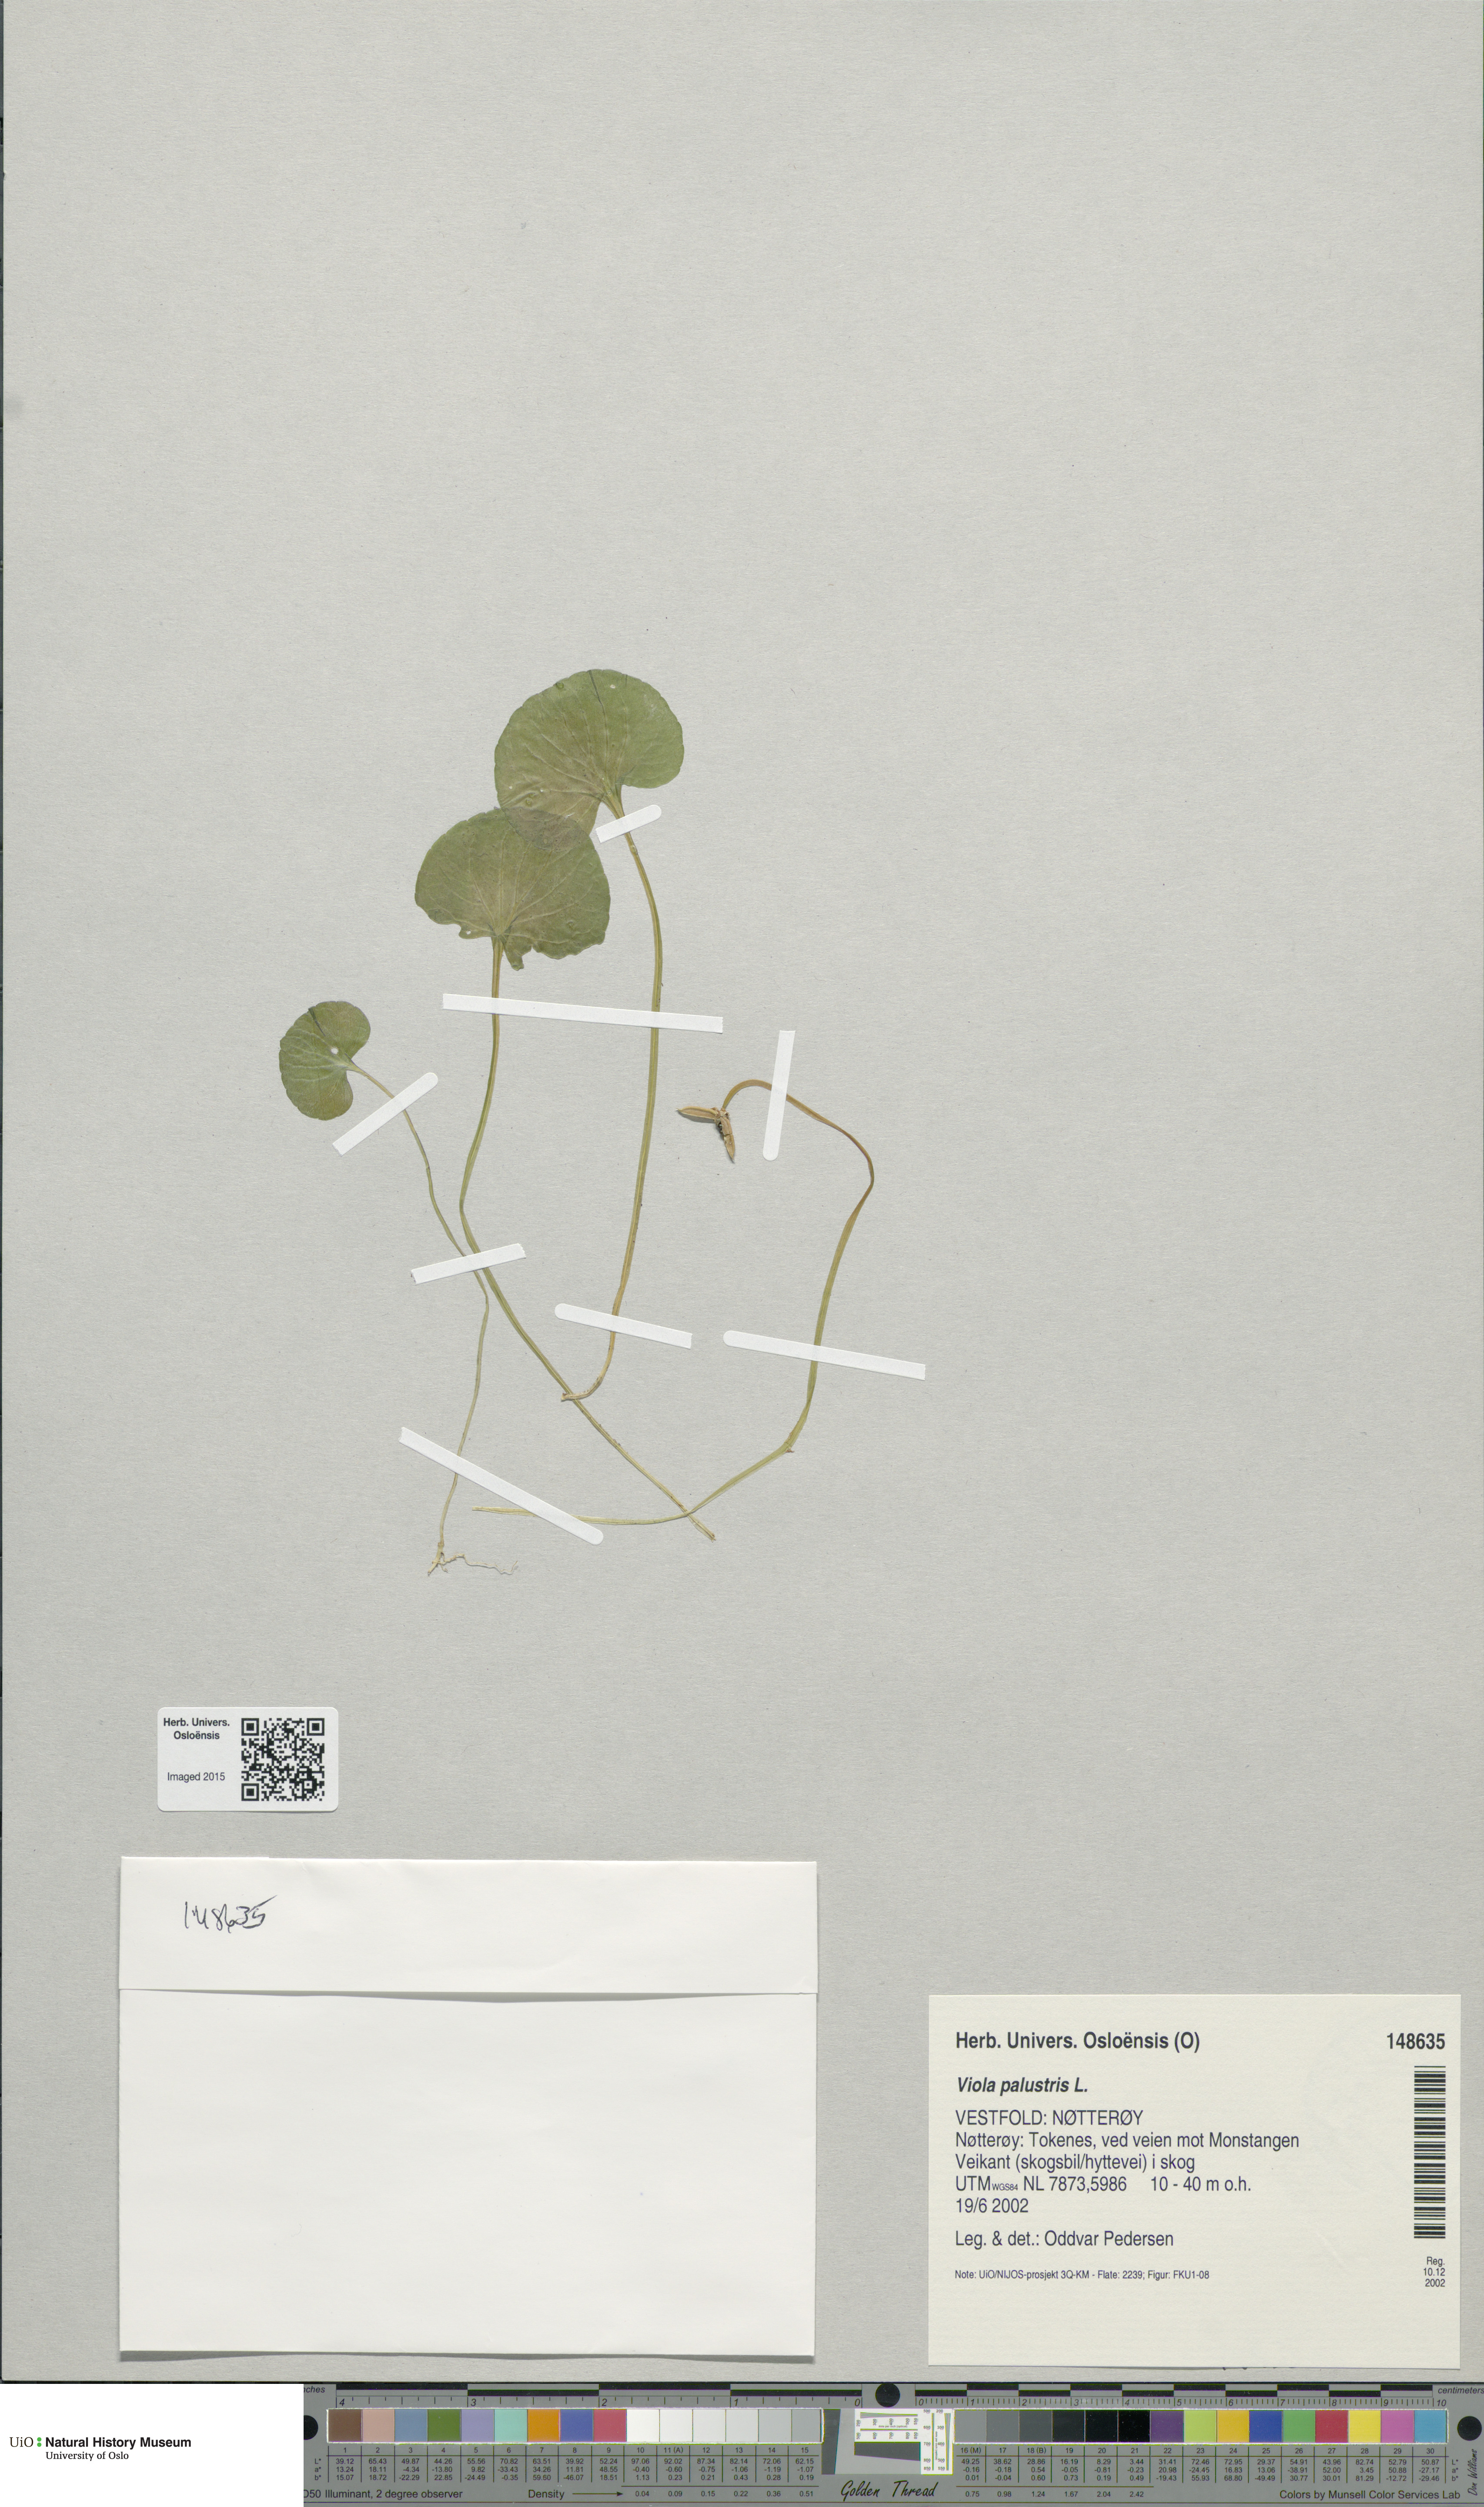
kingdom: Plantae
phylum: Tracheophyta
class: Magnoliopsida
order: Malpighiales
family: Violaceae
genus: Viola
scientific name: Viola palustris
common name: Marsh violet
